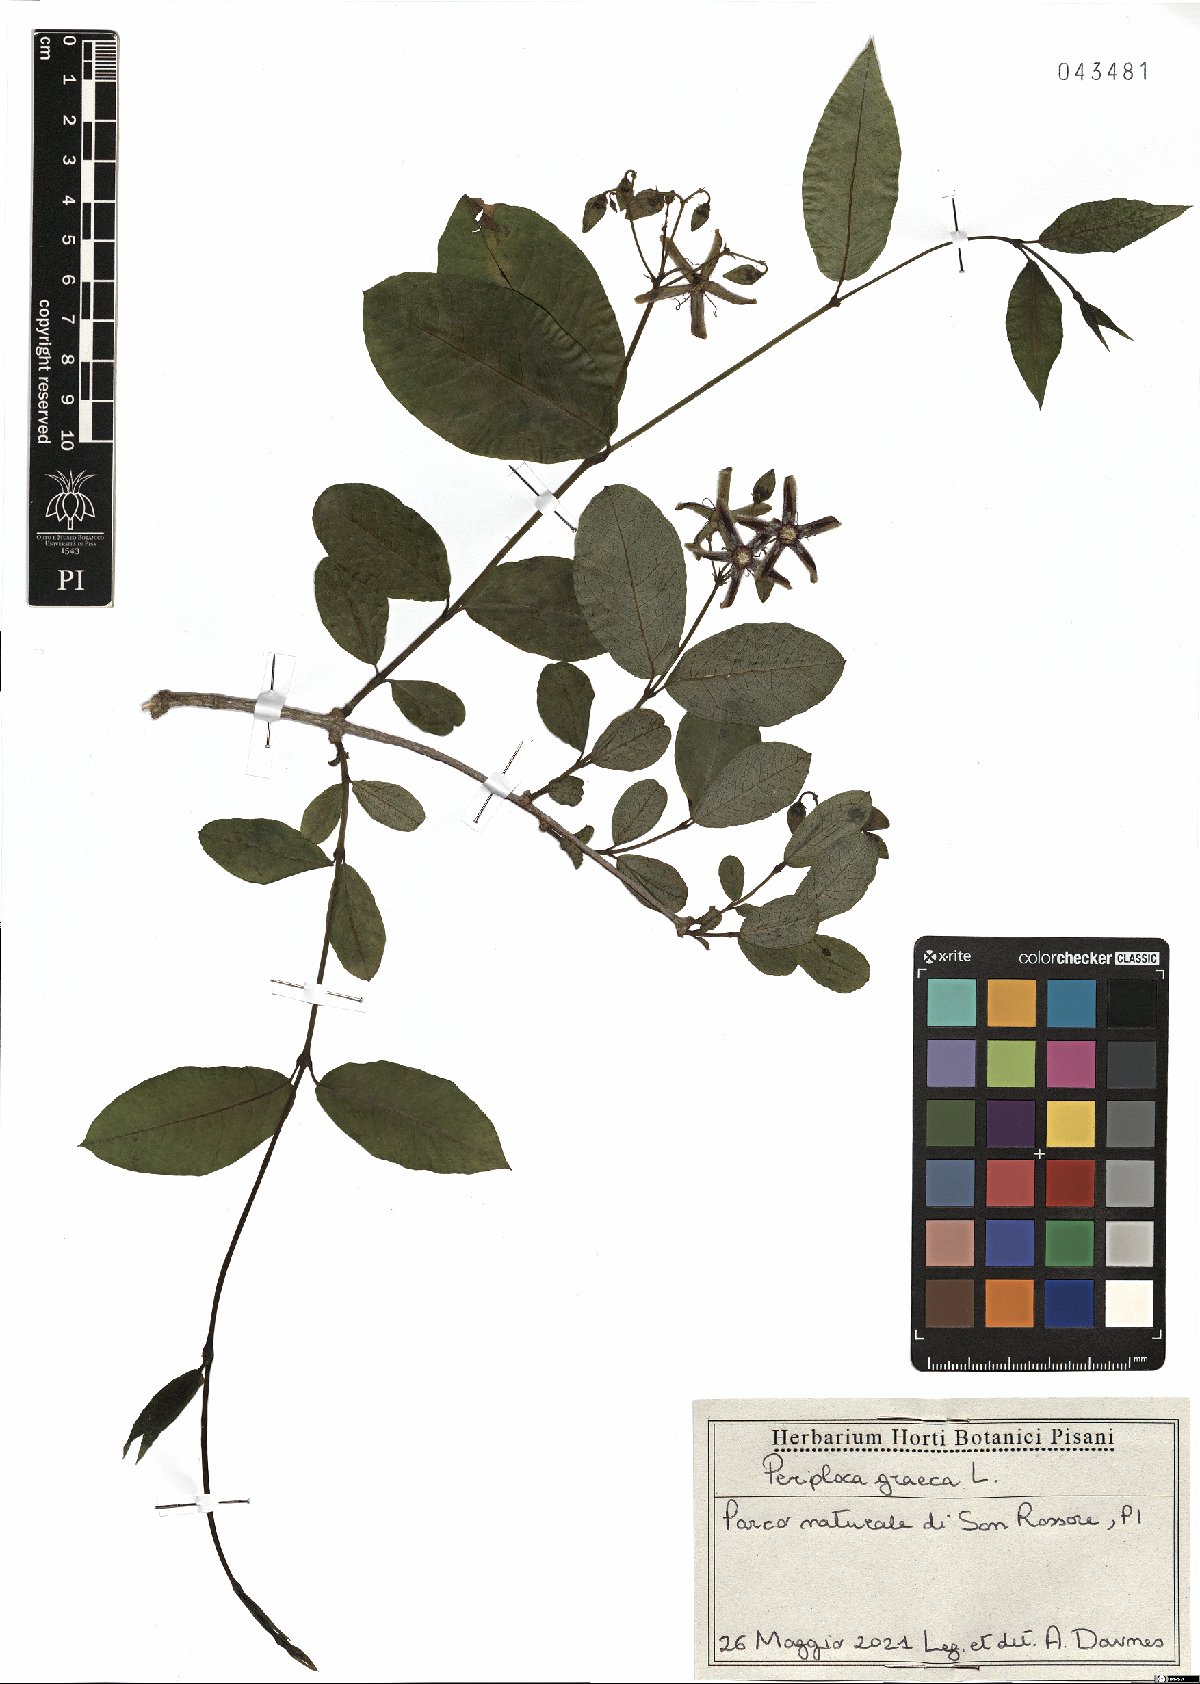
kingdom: Plantae
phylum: Tracheophyta
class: Magnoliopsida
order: Gentianales
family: Apocynaceae
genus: Periploca
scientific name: Periploca graeca
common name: Silkvine
